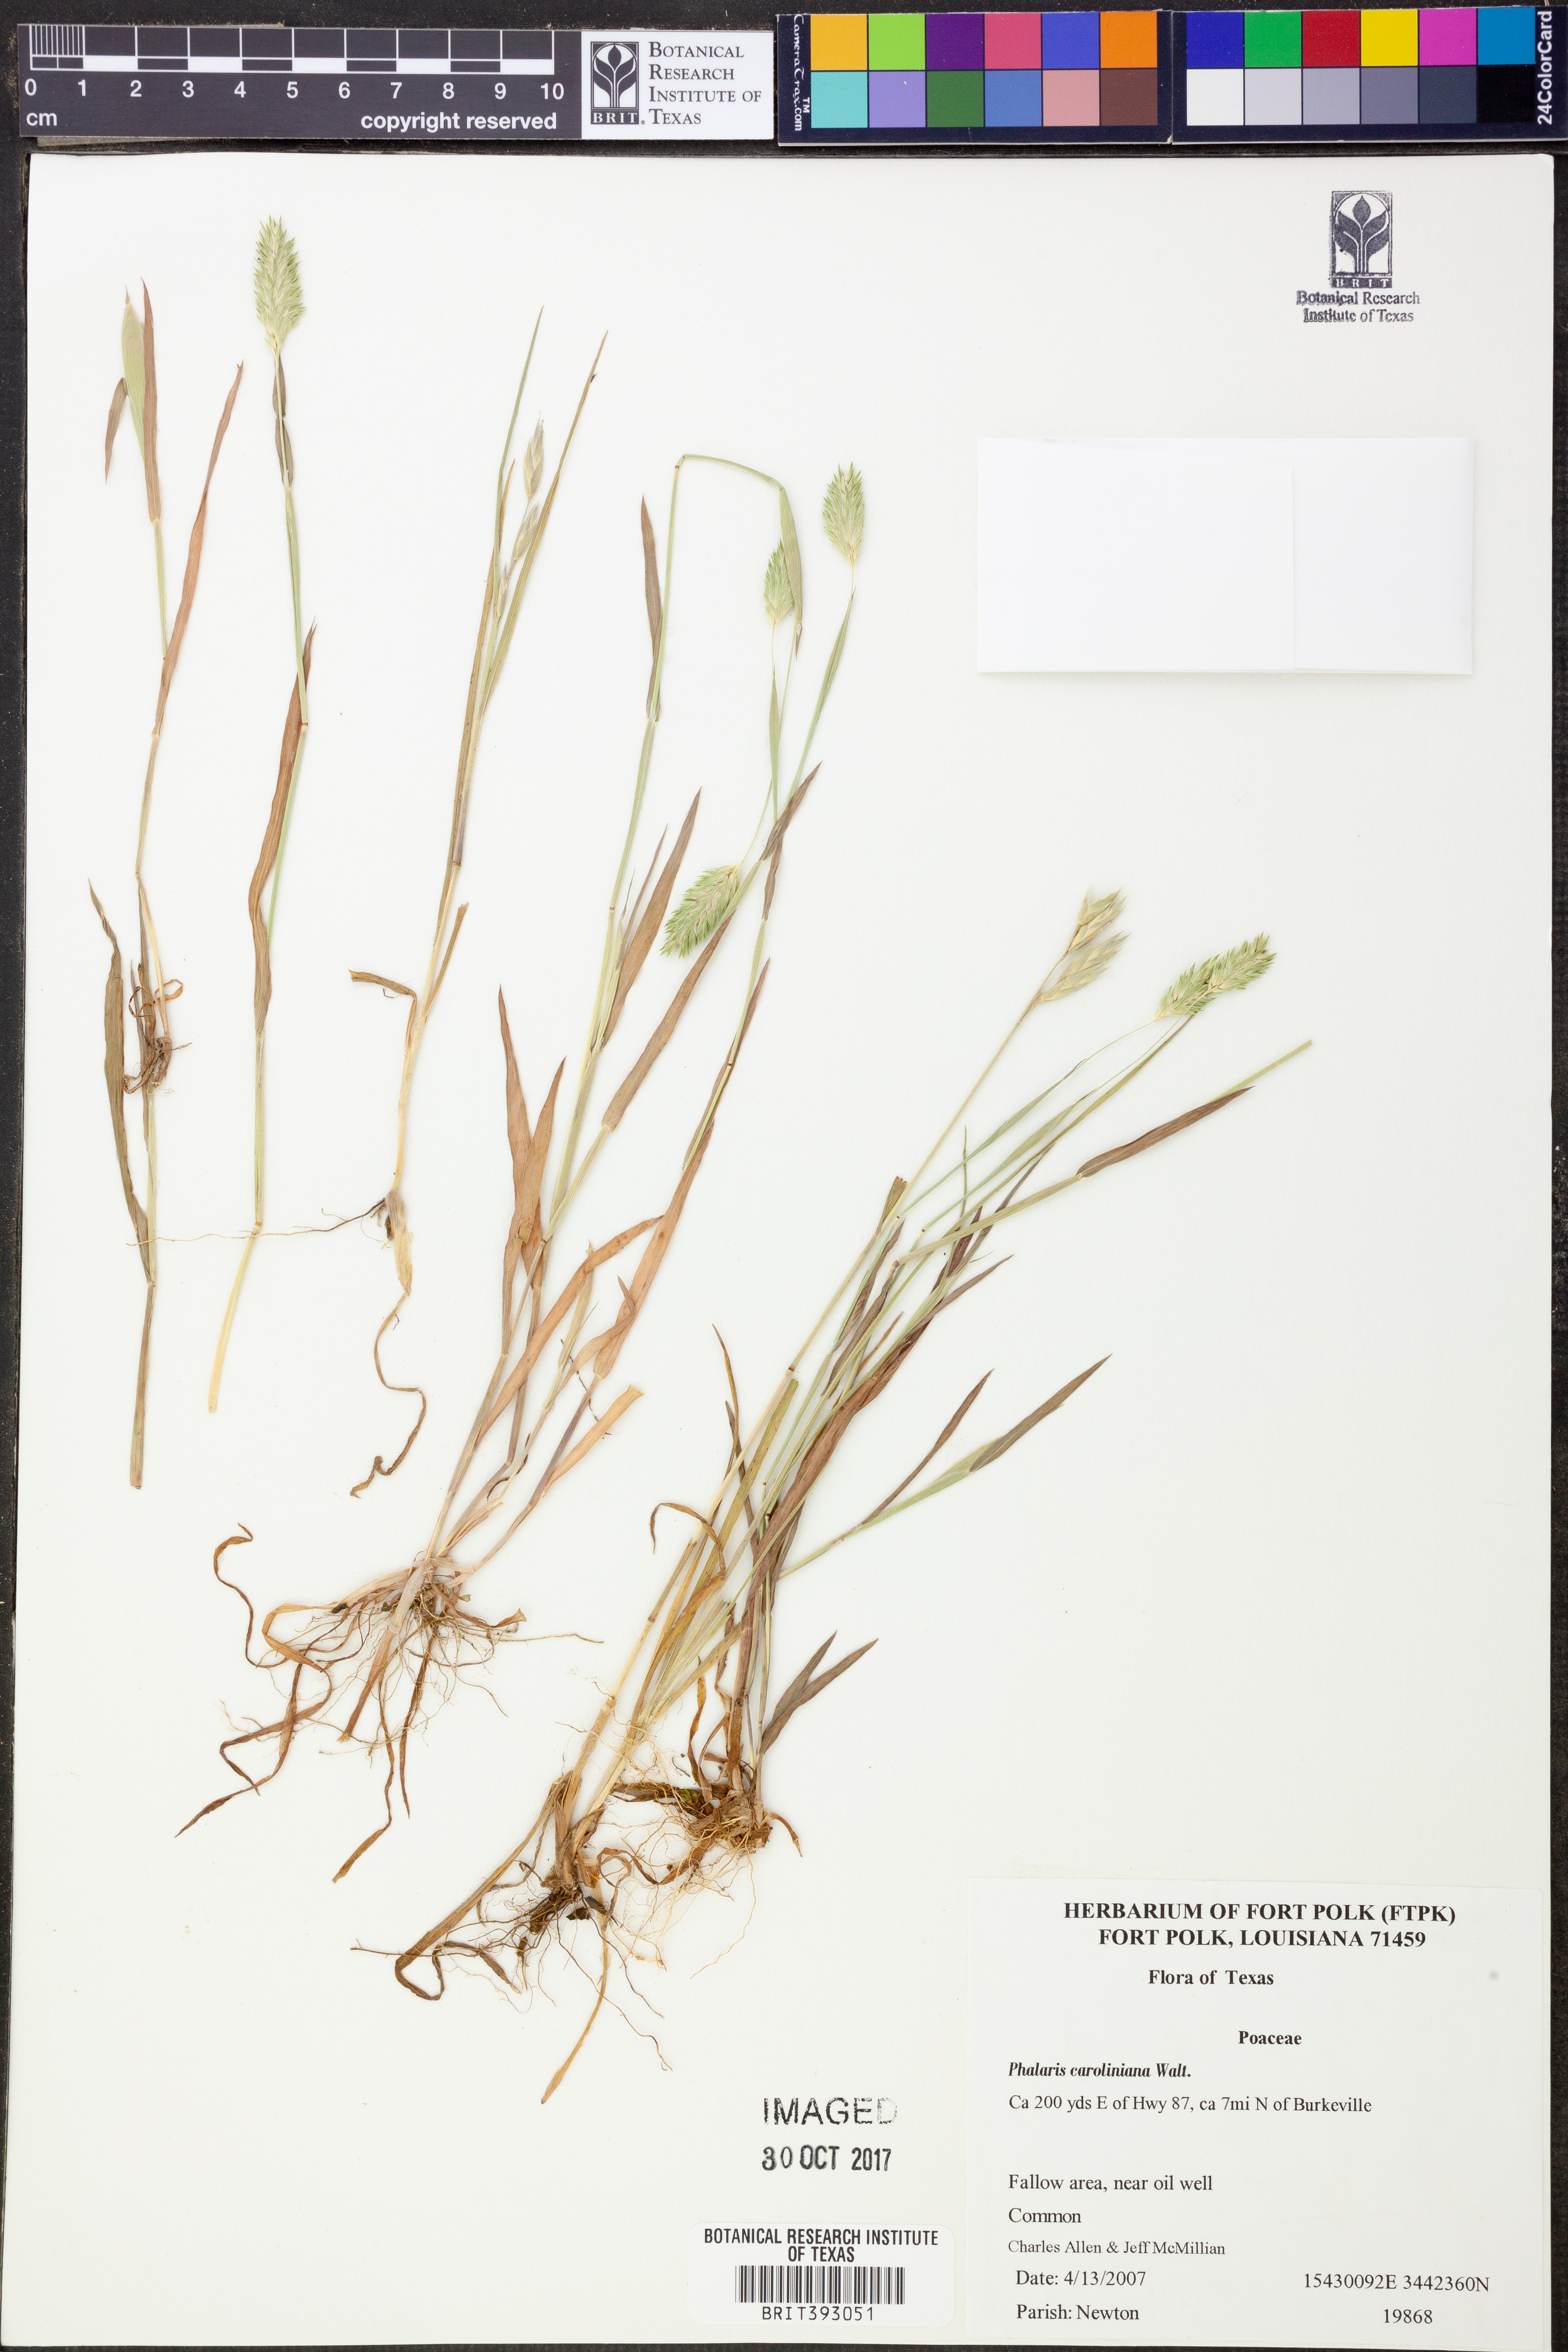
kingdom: Plantae
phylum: Tracheophyta
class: Liliopsida
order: Poales
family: Poaceae
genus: Phalaris
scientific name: Phalaris caroliniana
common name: May grass
